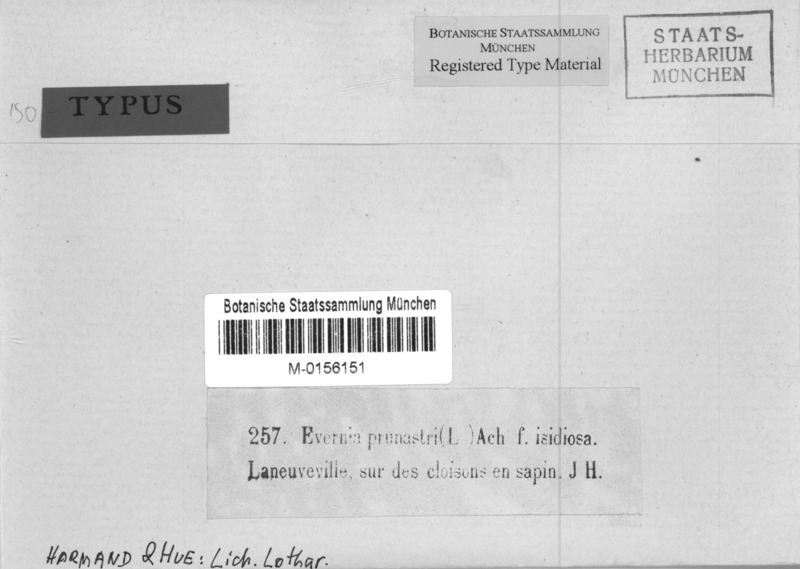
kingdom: Fungi
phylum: Ascomycota
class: Lecanoromycetes
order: Lecanorales
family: Parmeliaceae
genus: Evernia
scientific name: Evernia prunastri
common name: Oak moss
